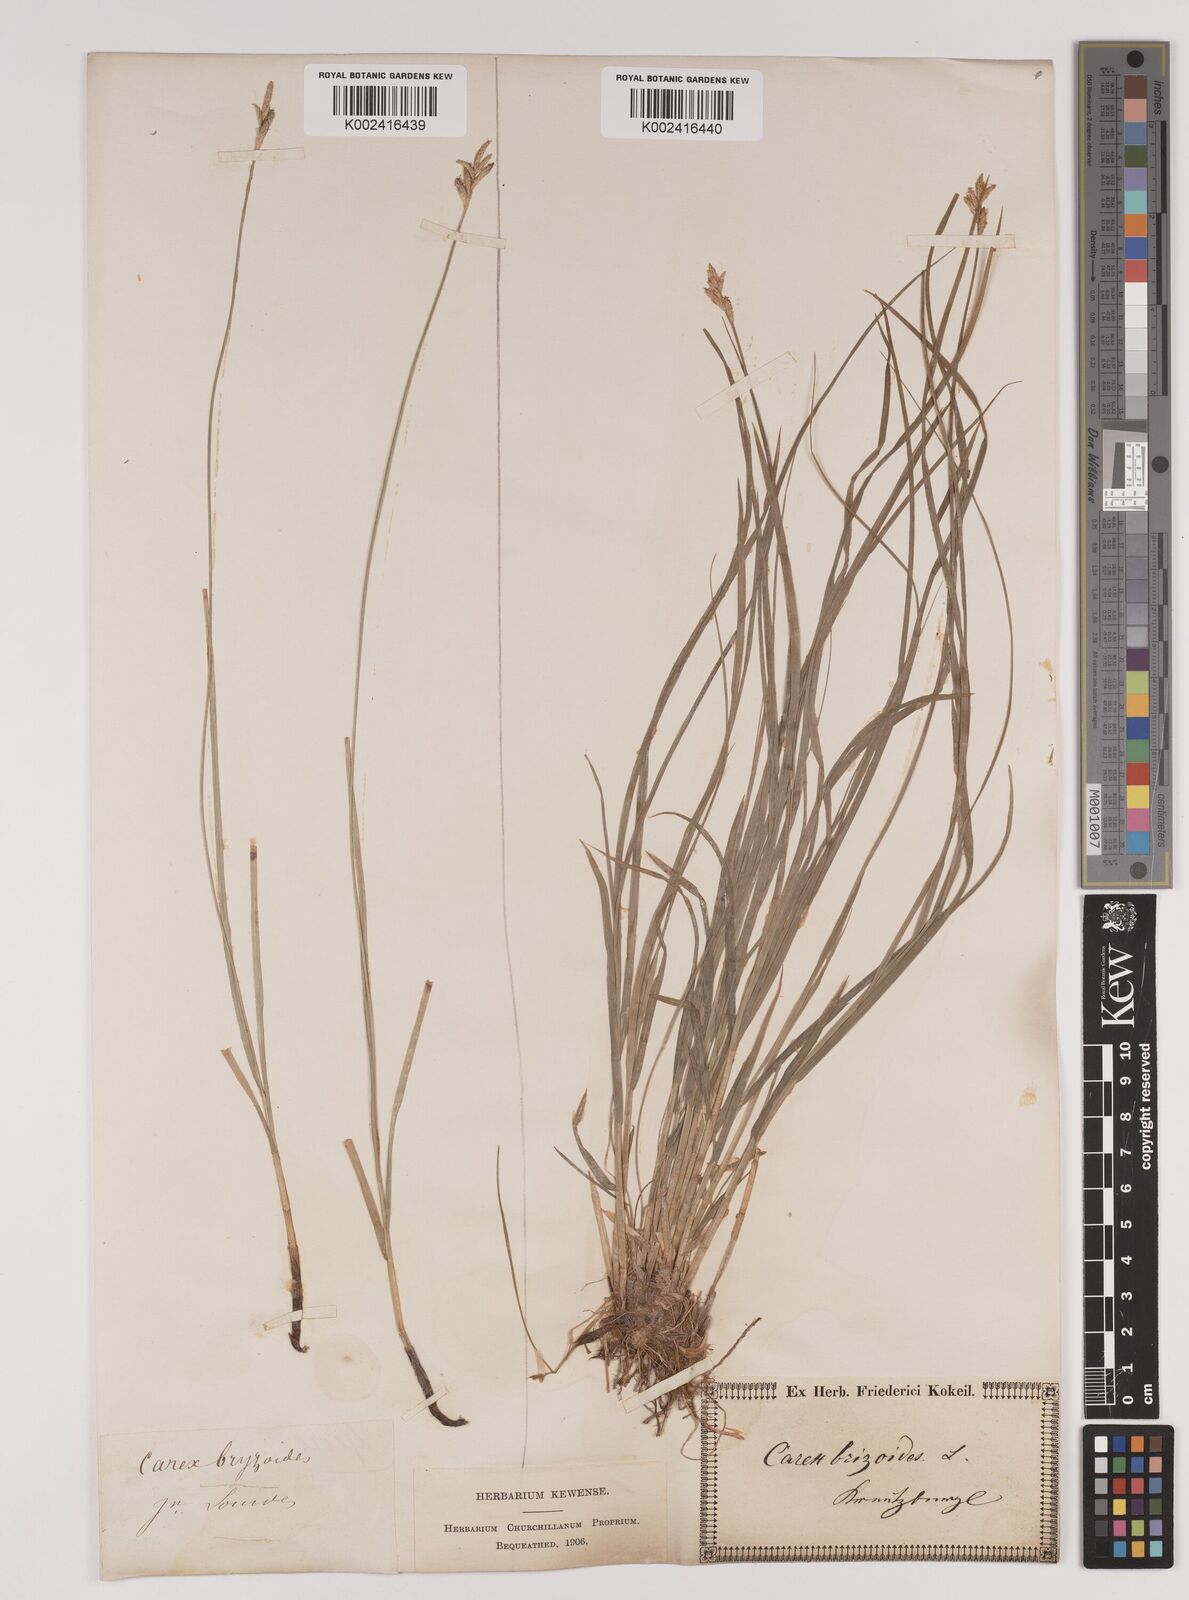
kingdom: Plantae
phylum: Tracheophyta
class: Liliopsida
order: Poales
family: Cyperaceae
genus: Carex
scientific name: Carex brizoides
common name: Quaking-grass sedge
